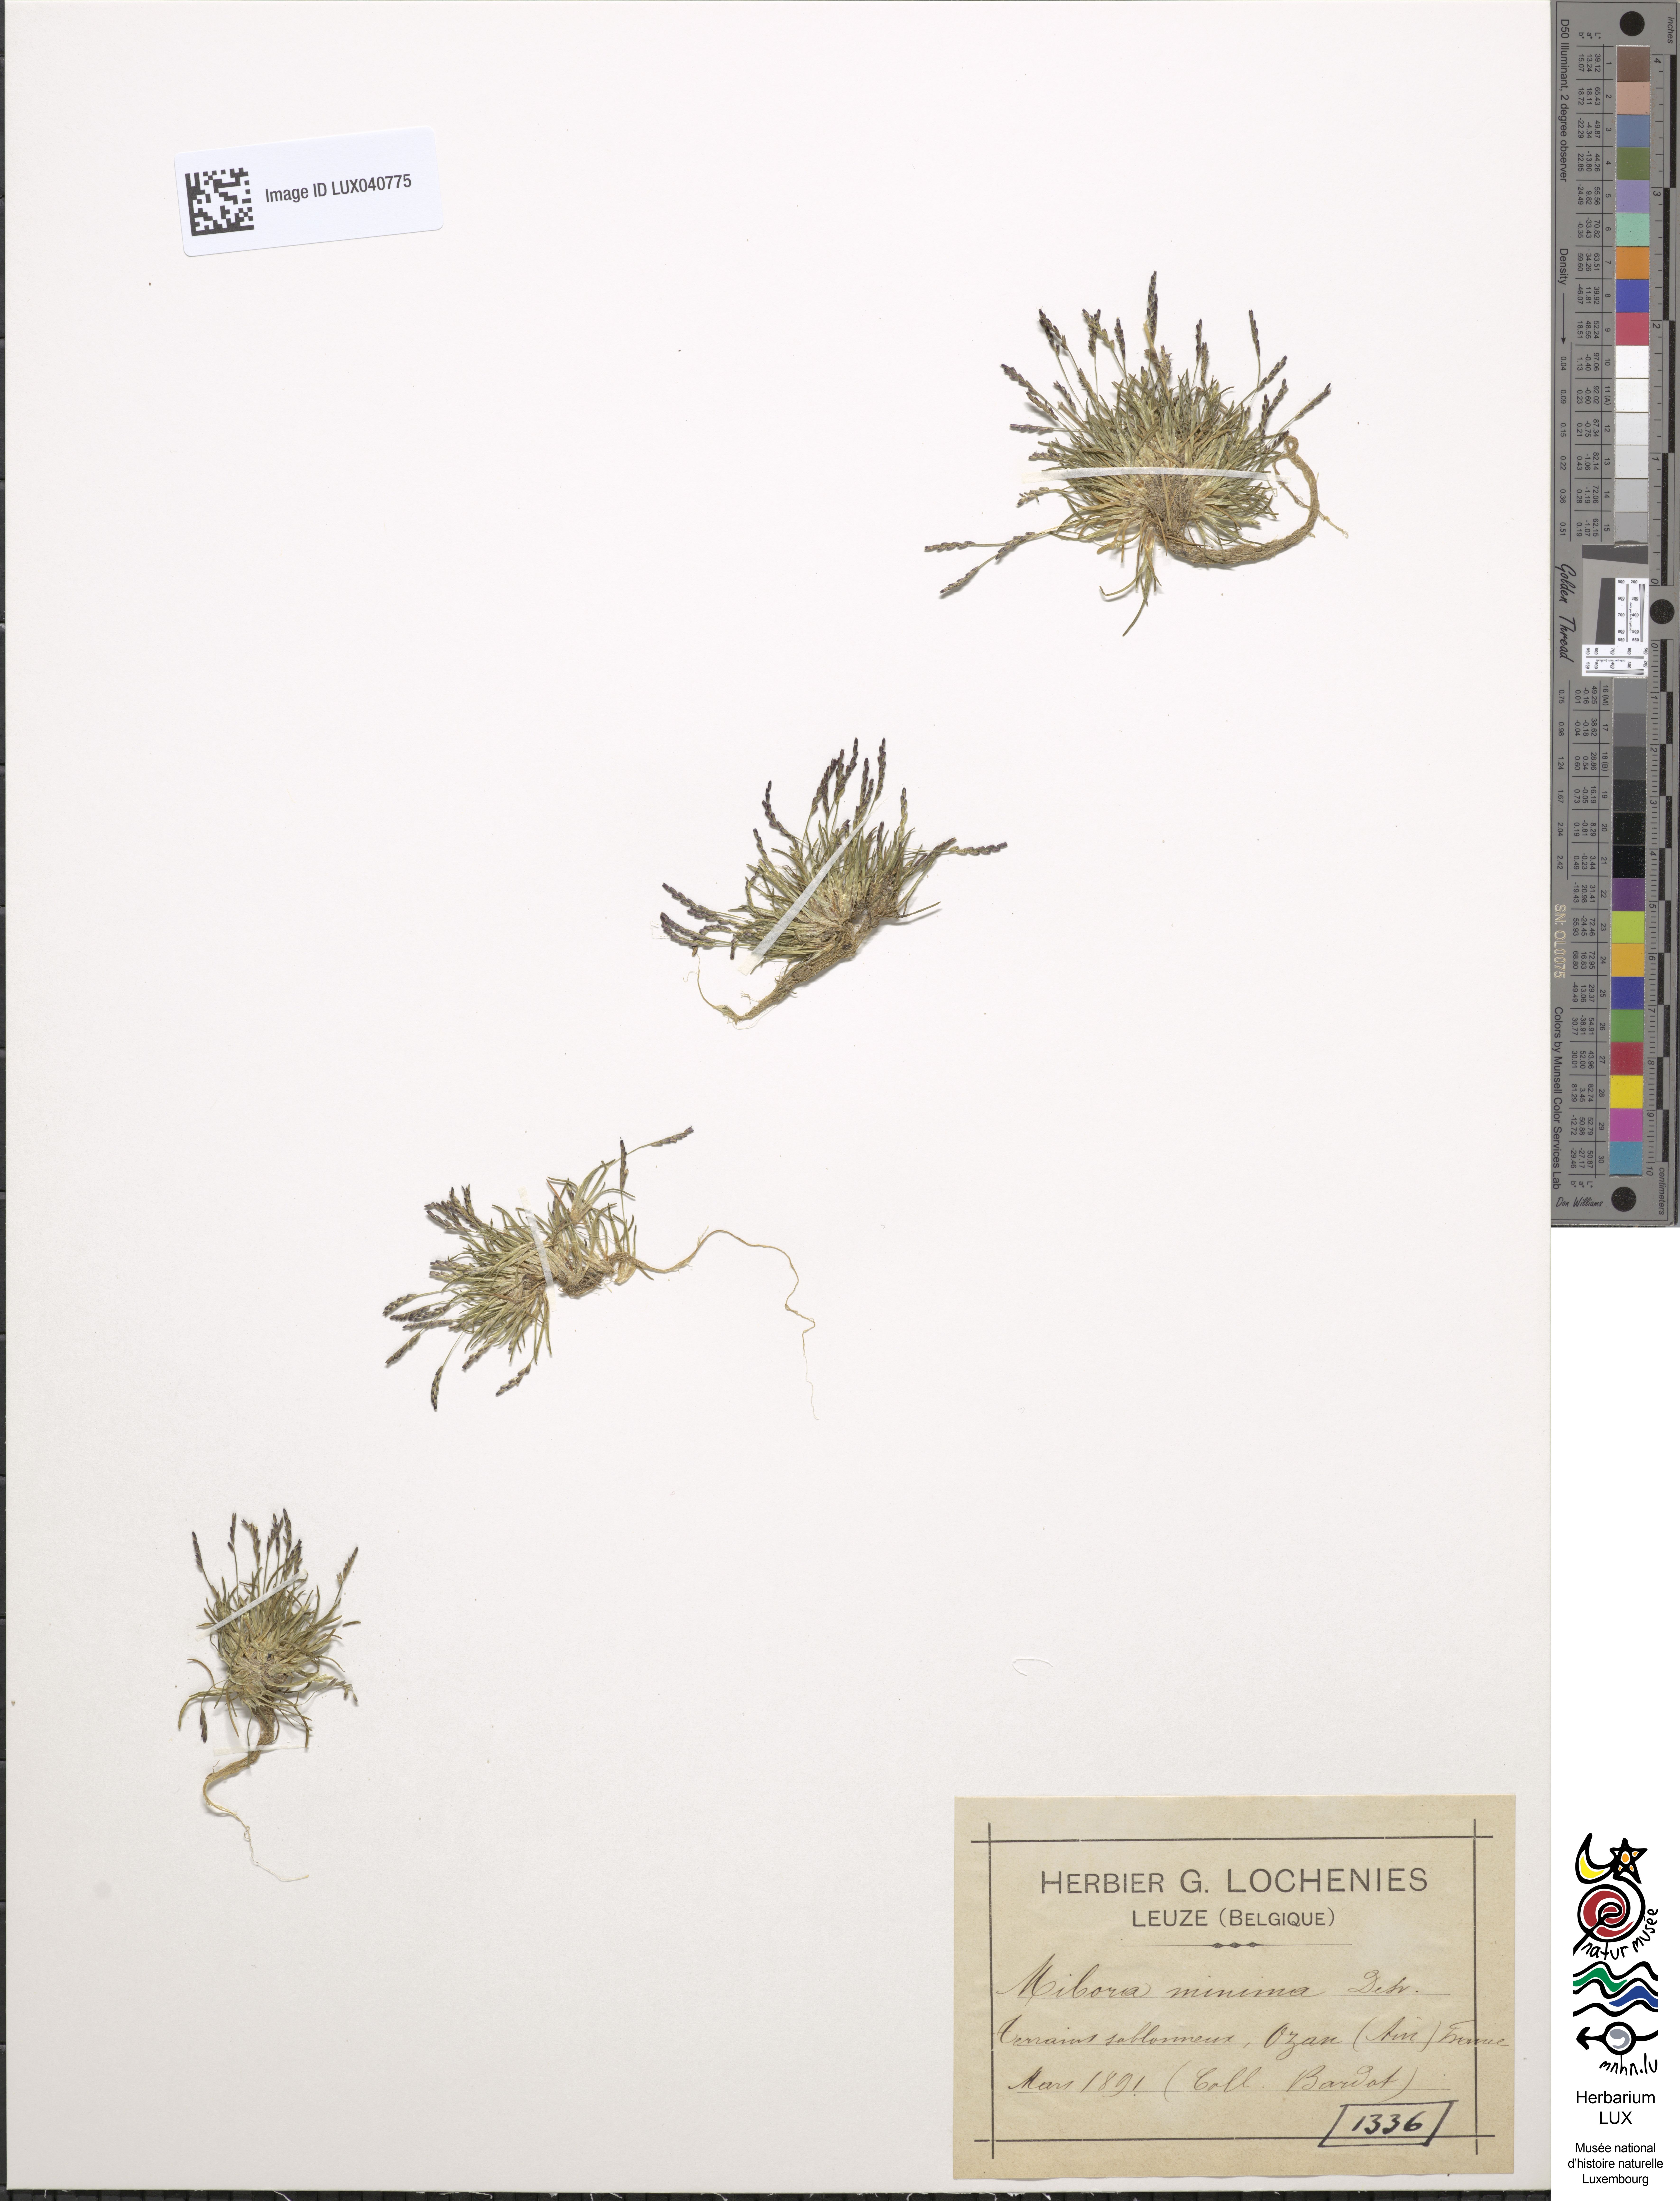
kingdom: Plantae
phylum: Tracheophyta
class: Liliopsida
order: Poales
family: Poaceae
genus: Mibora
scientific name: Mibora minima
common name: Early sand-grass
